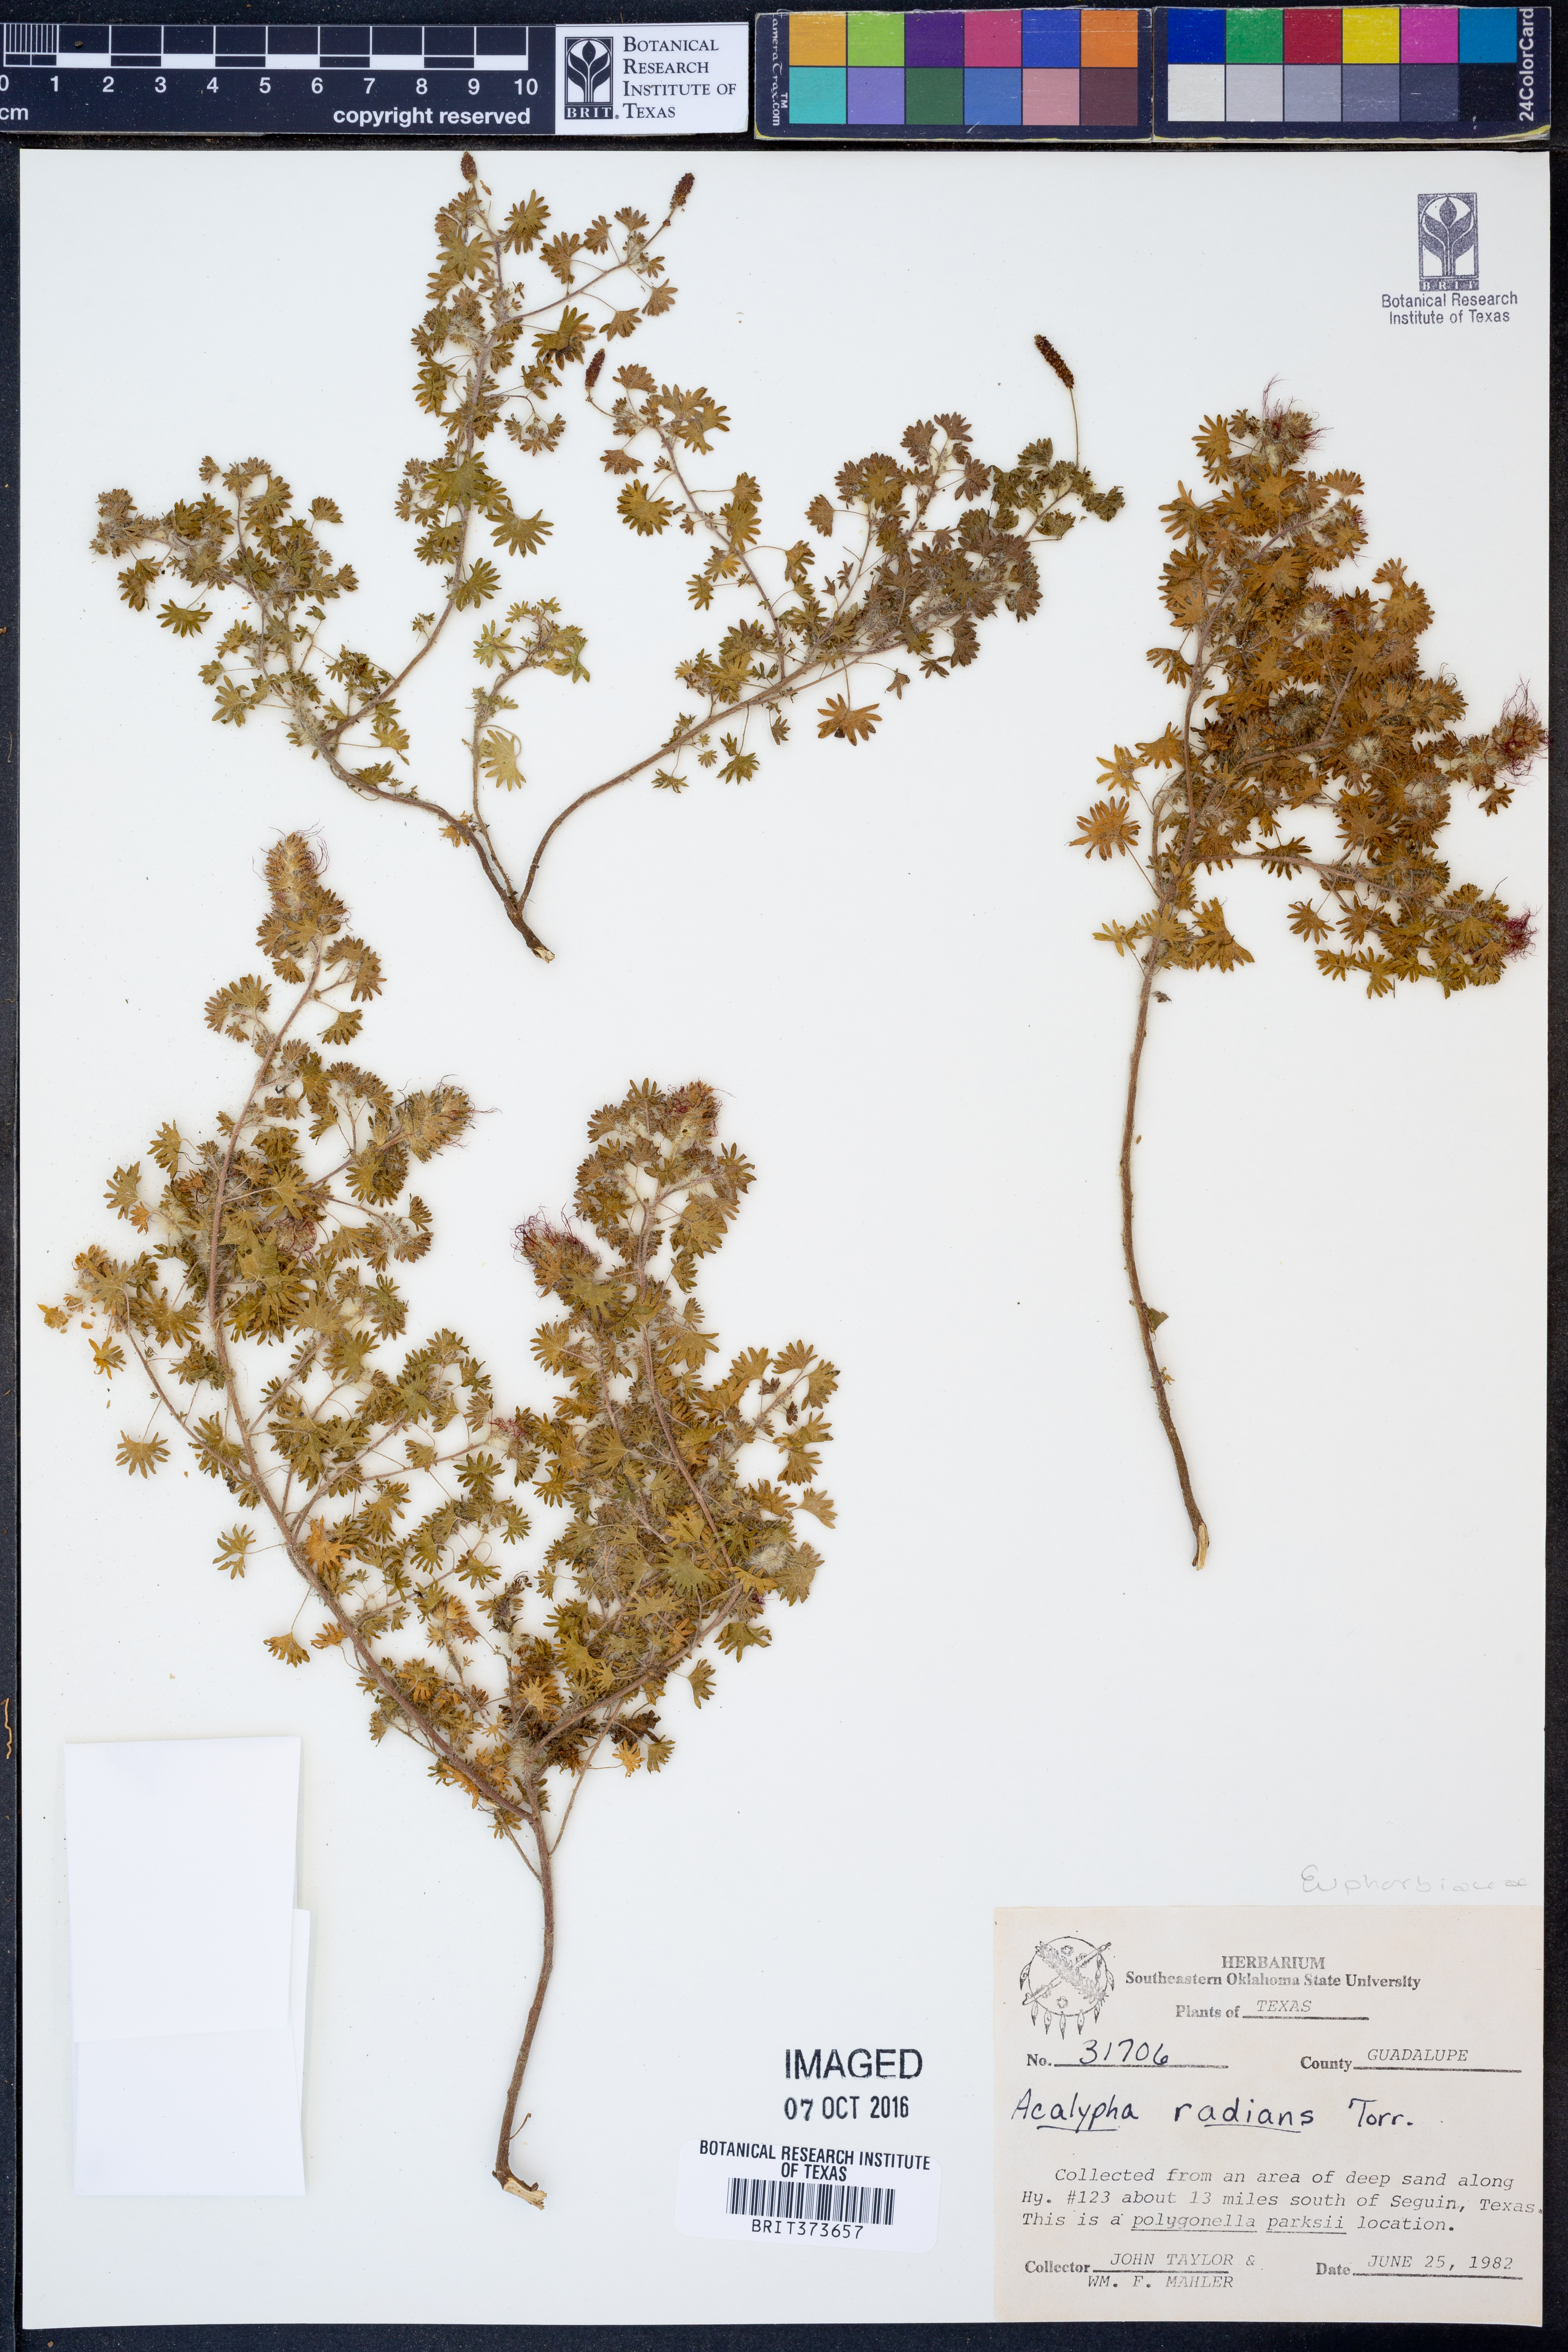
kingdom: Plantae
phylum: Tracheophyta
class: Magnoliopsida
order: Malpighiales
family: Euphorbiaceae
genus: Acalypha
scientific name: Acalypha radians
